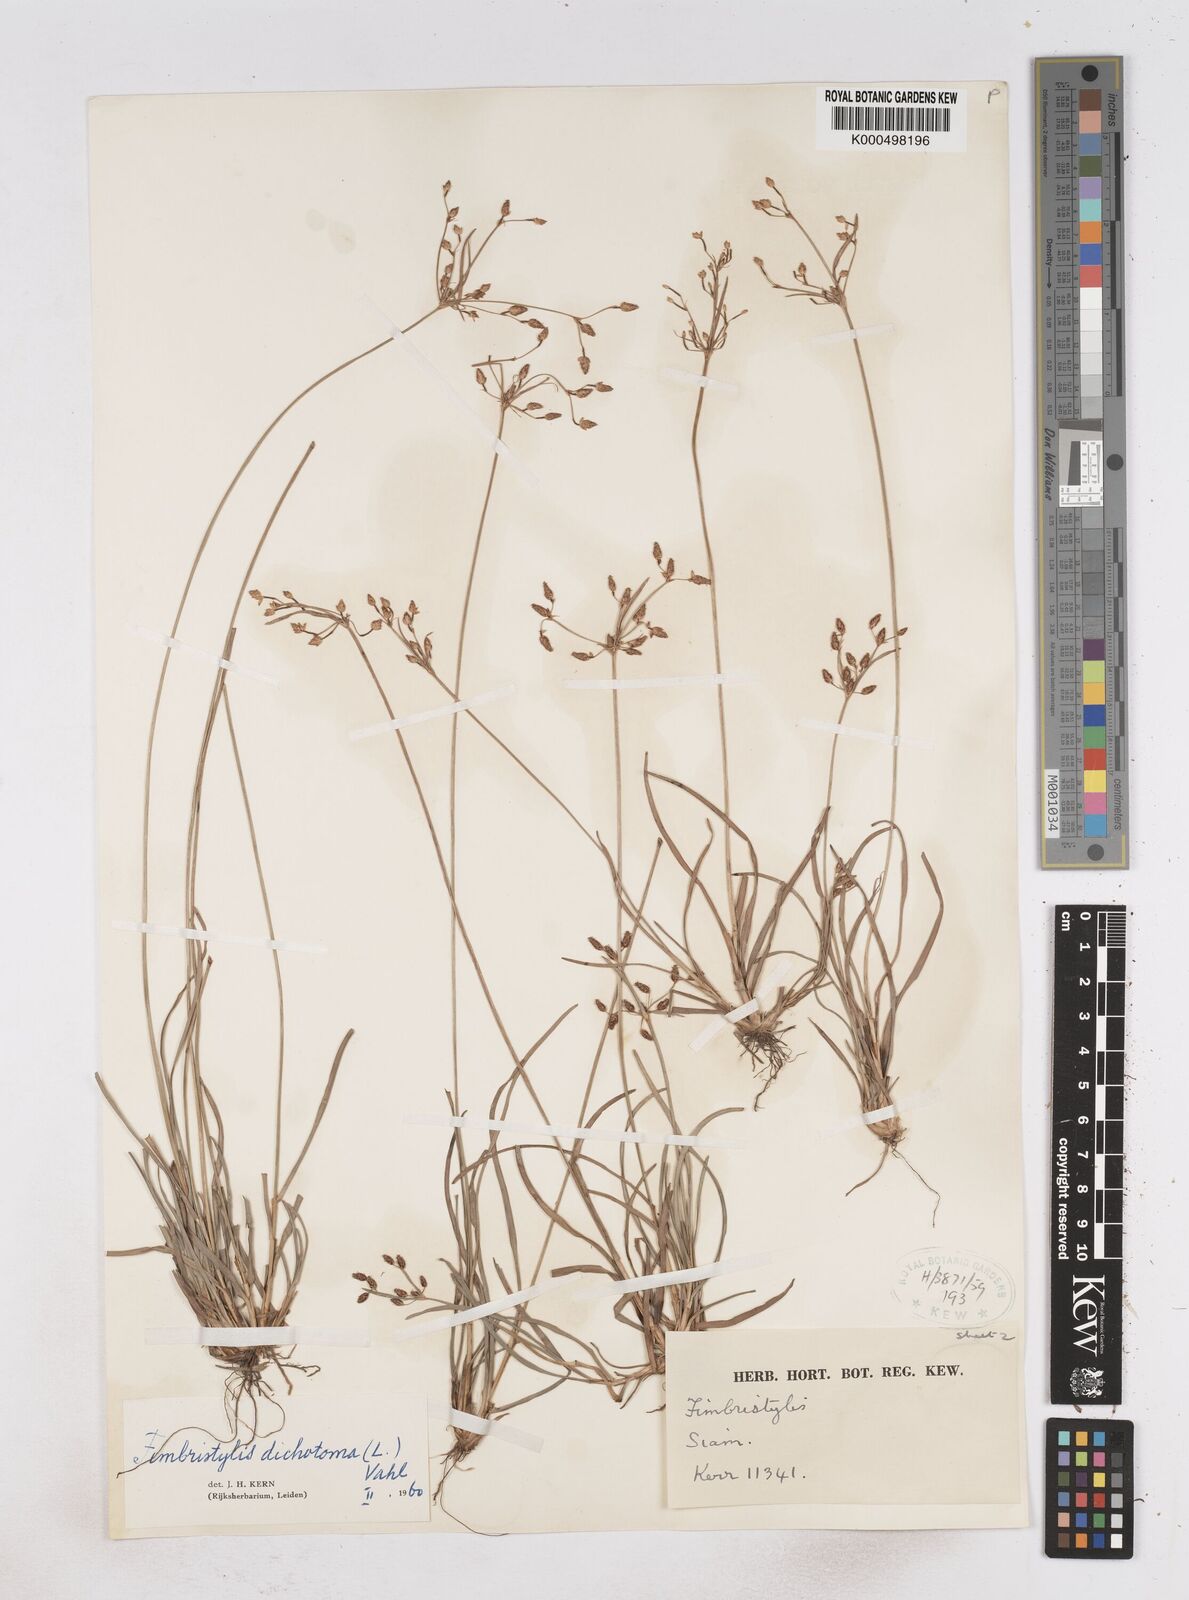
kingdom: Plantae
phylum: Tracheophyta
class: Liliopsida
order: Poales
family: Cyperaceae
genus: Fimbristylis
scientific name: Fimbristylis dichotoma
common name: Forked fimbry
